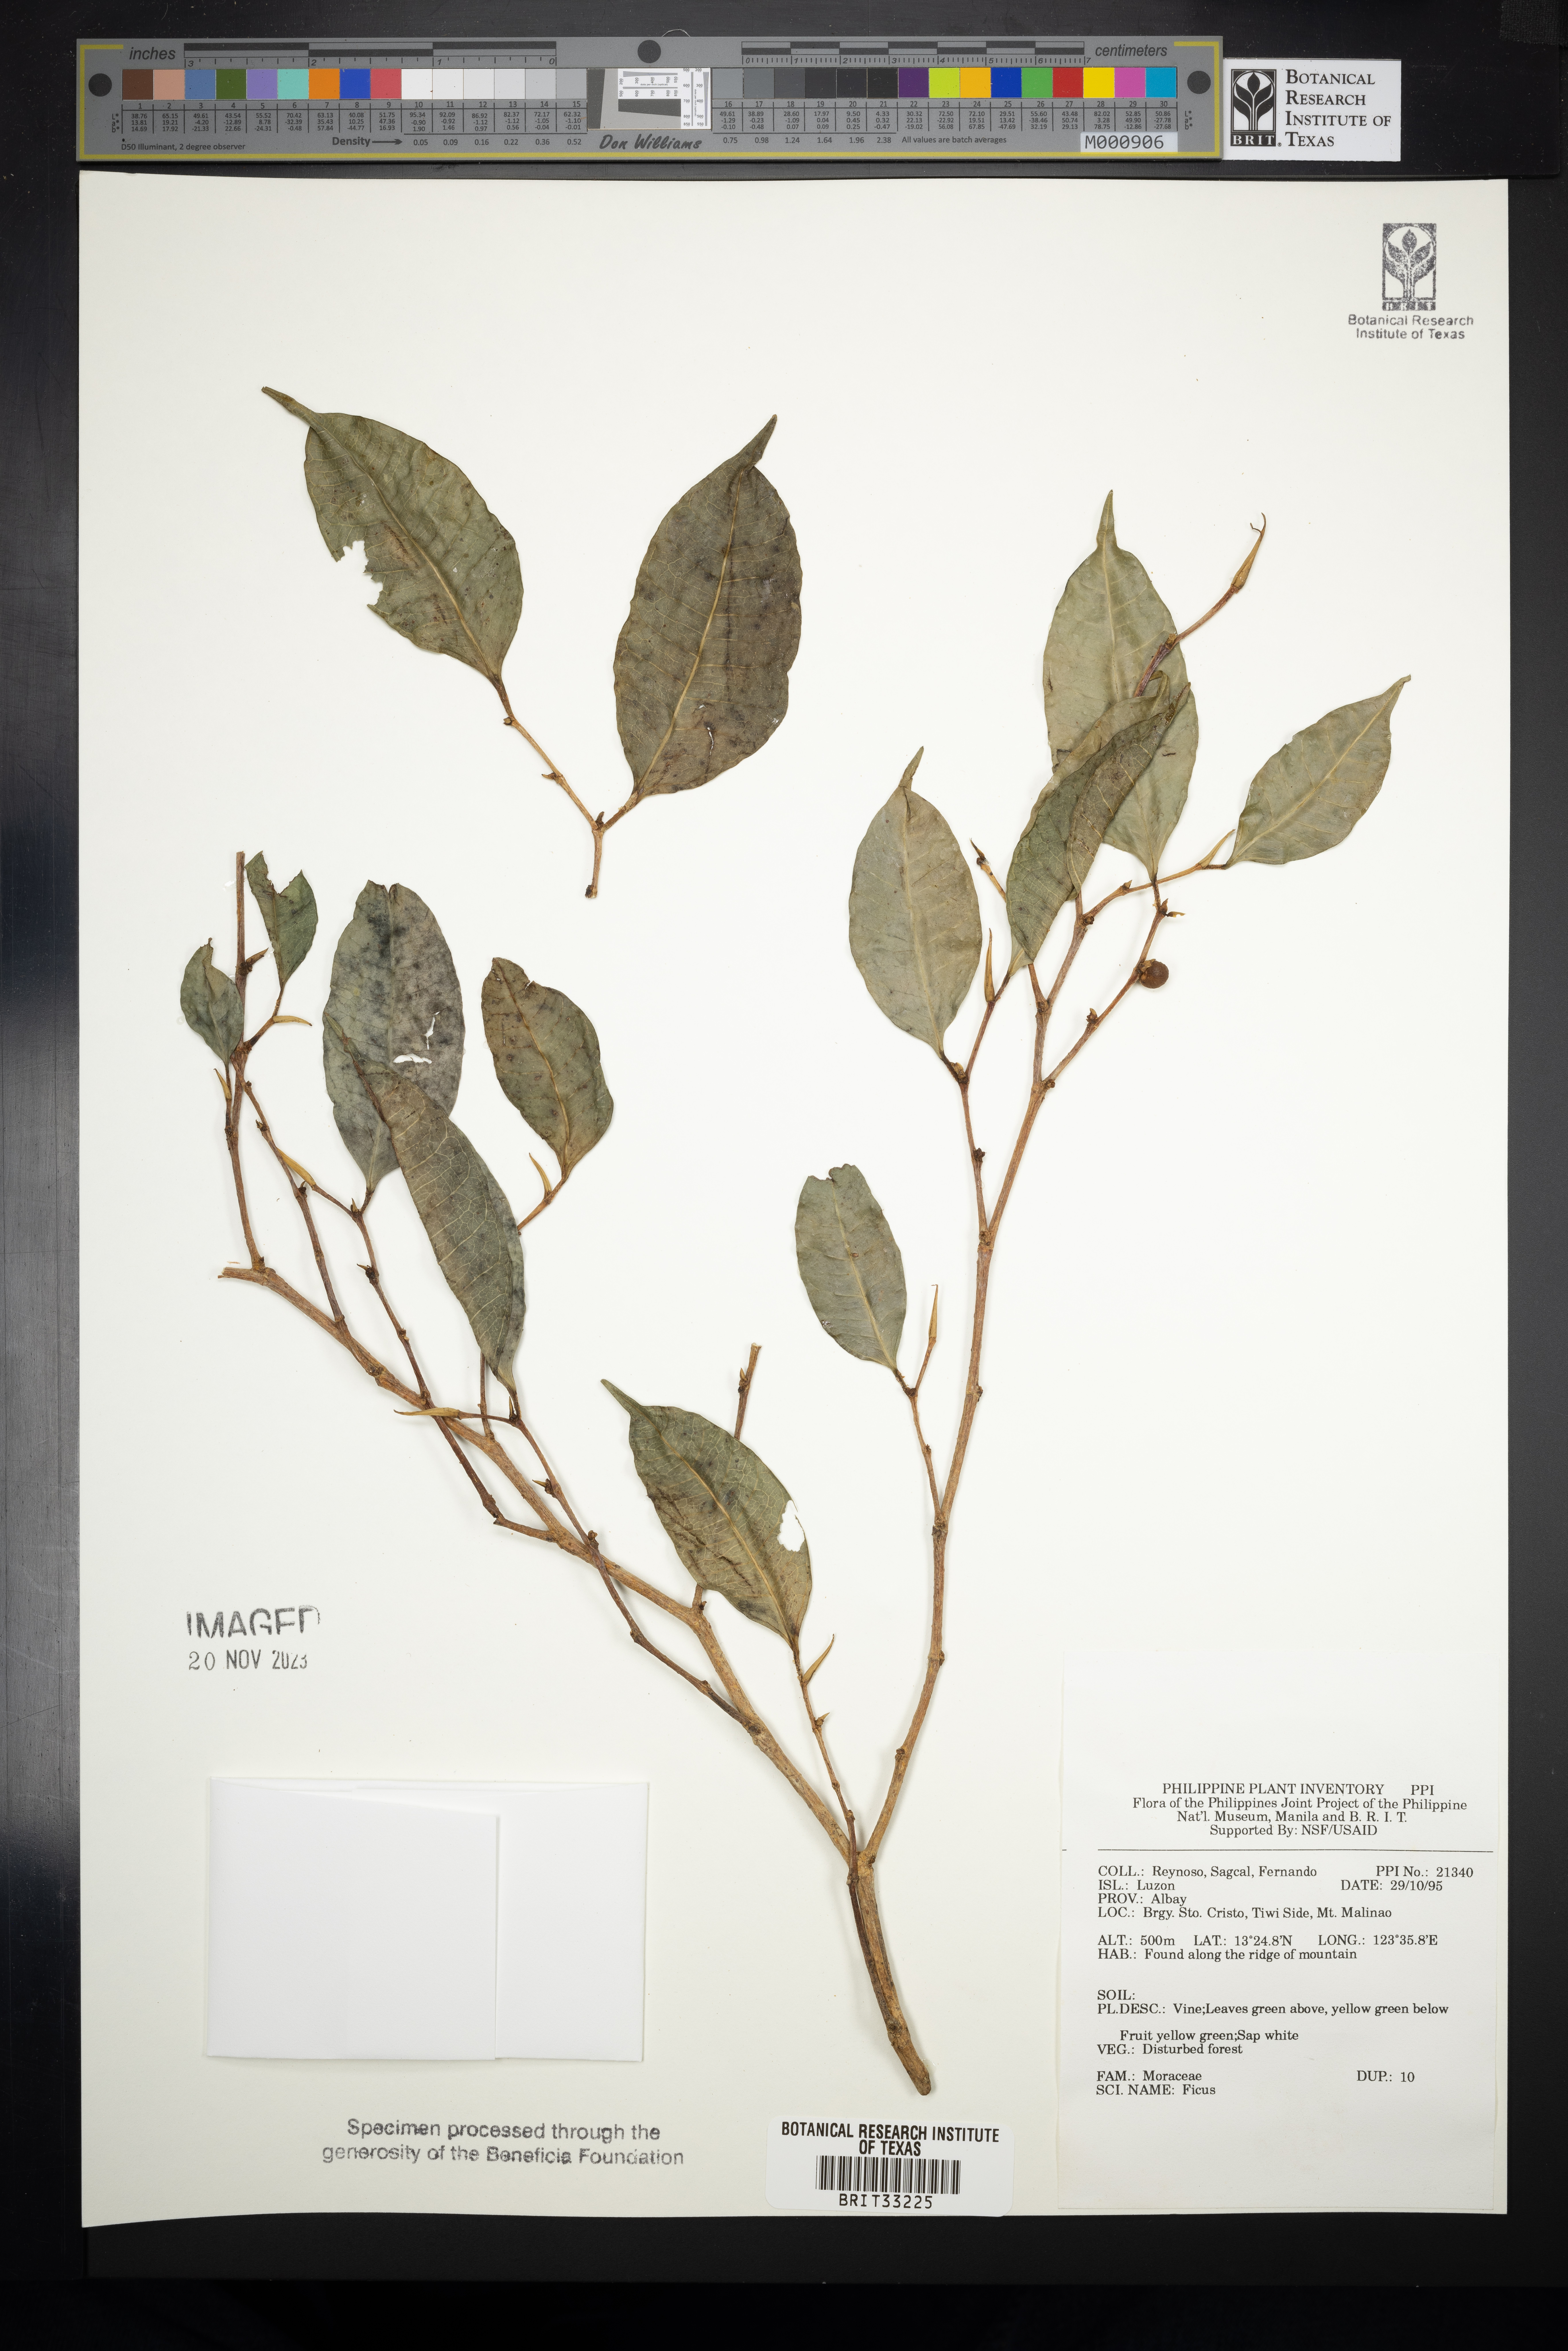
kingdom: Plantae
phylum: Tracheophyta
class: Magnoliopsida
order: Rosales
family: Moraceae
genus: Ficus
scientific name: Ficus
